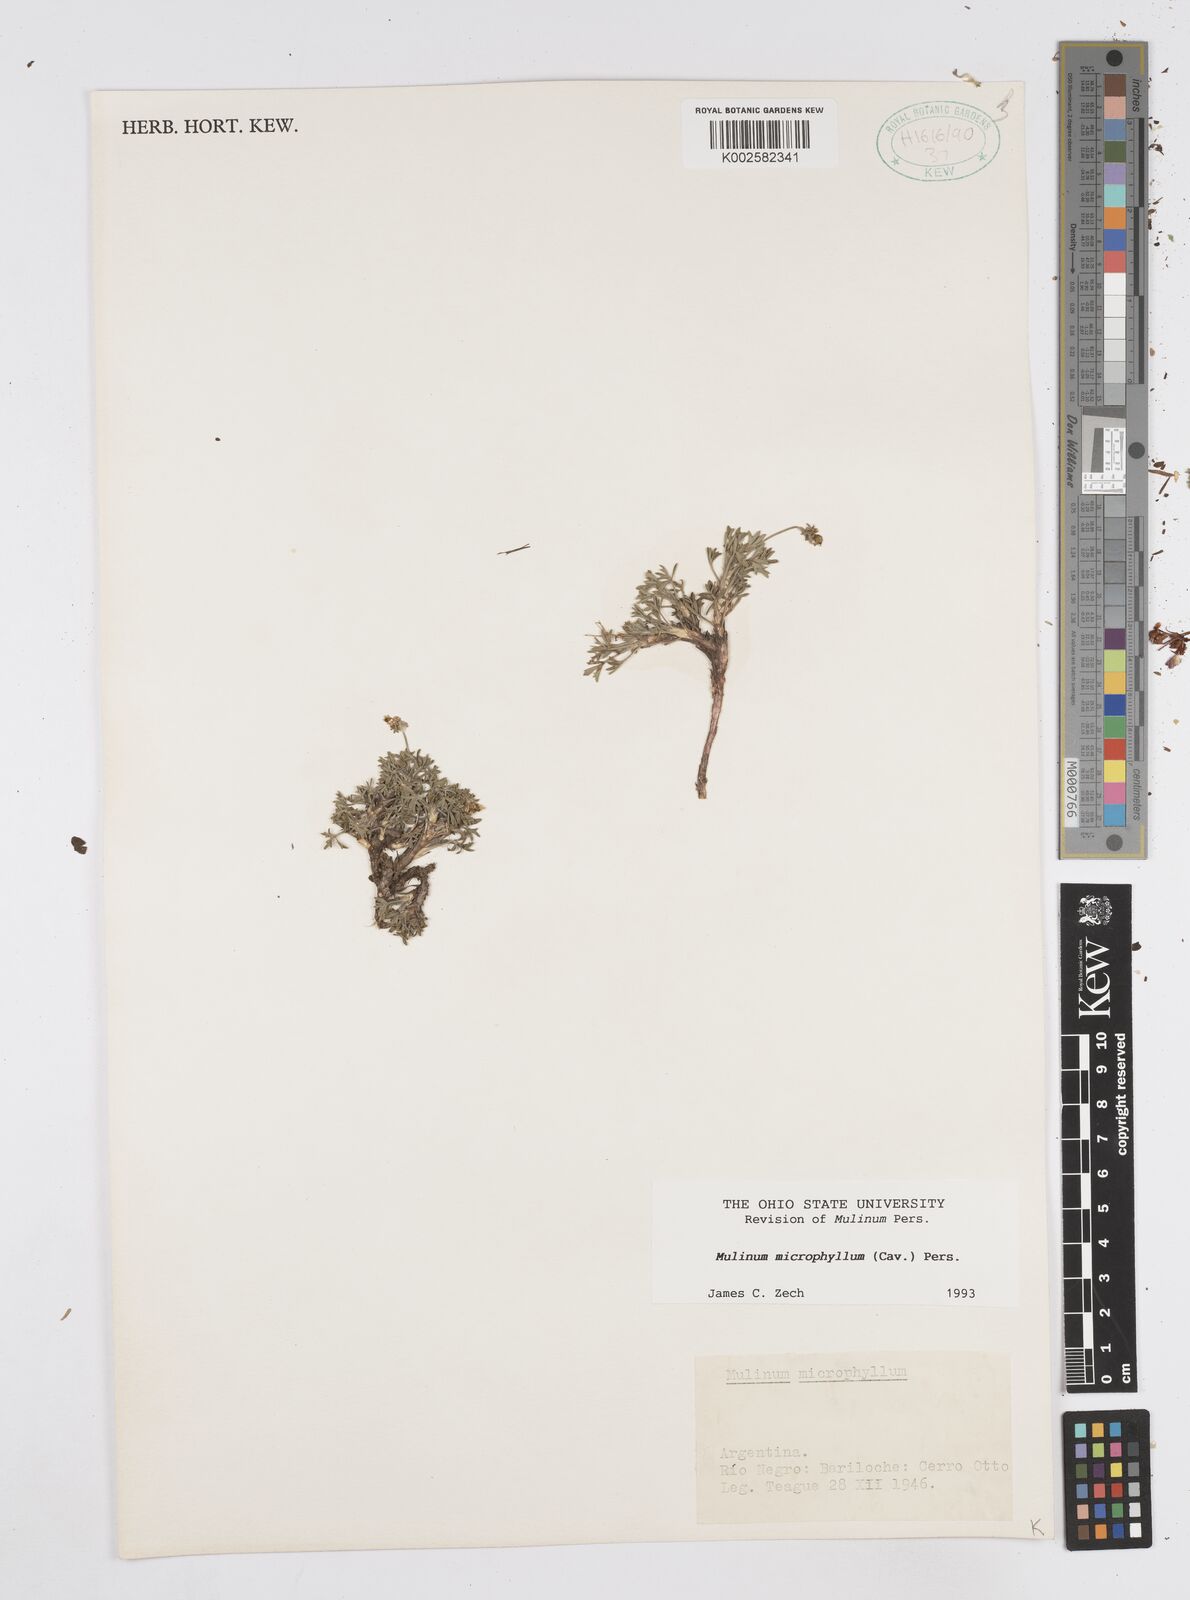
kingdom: Plantae
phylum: Tracheophyta
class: Magnoliopsida
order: Apiales
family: Apiaceae
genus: Azorella
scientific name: Azorella microphylla
